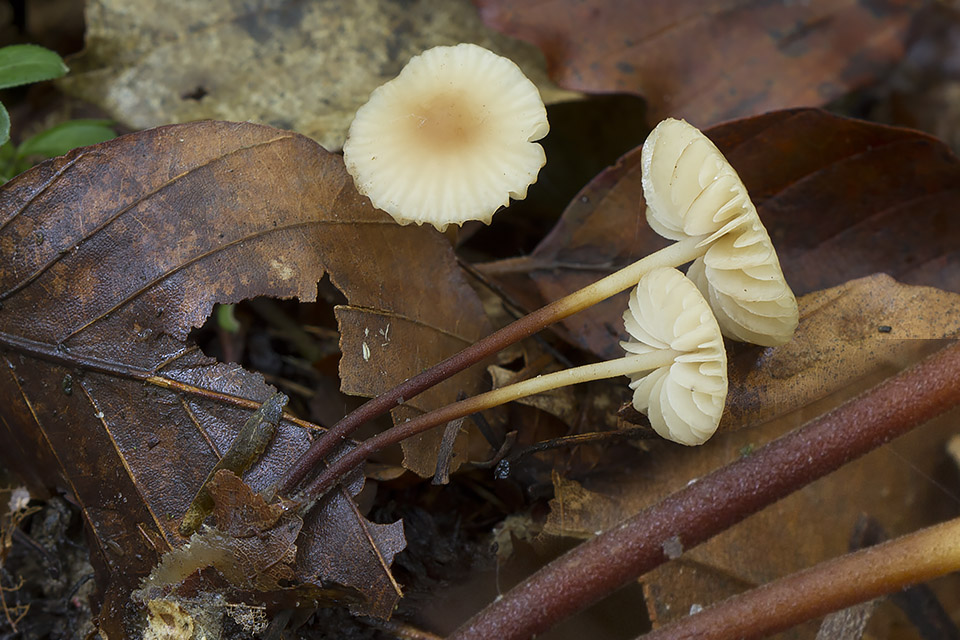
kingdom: Fungi
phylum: Basidiomycota
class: Agaricomycetes
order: Agaricales
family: Marasmiaceae
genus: Marasmius
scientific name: Marasmius torquescens
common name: filtfodet bruskhat
